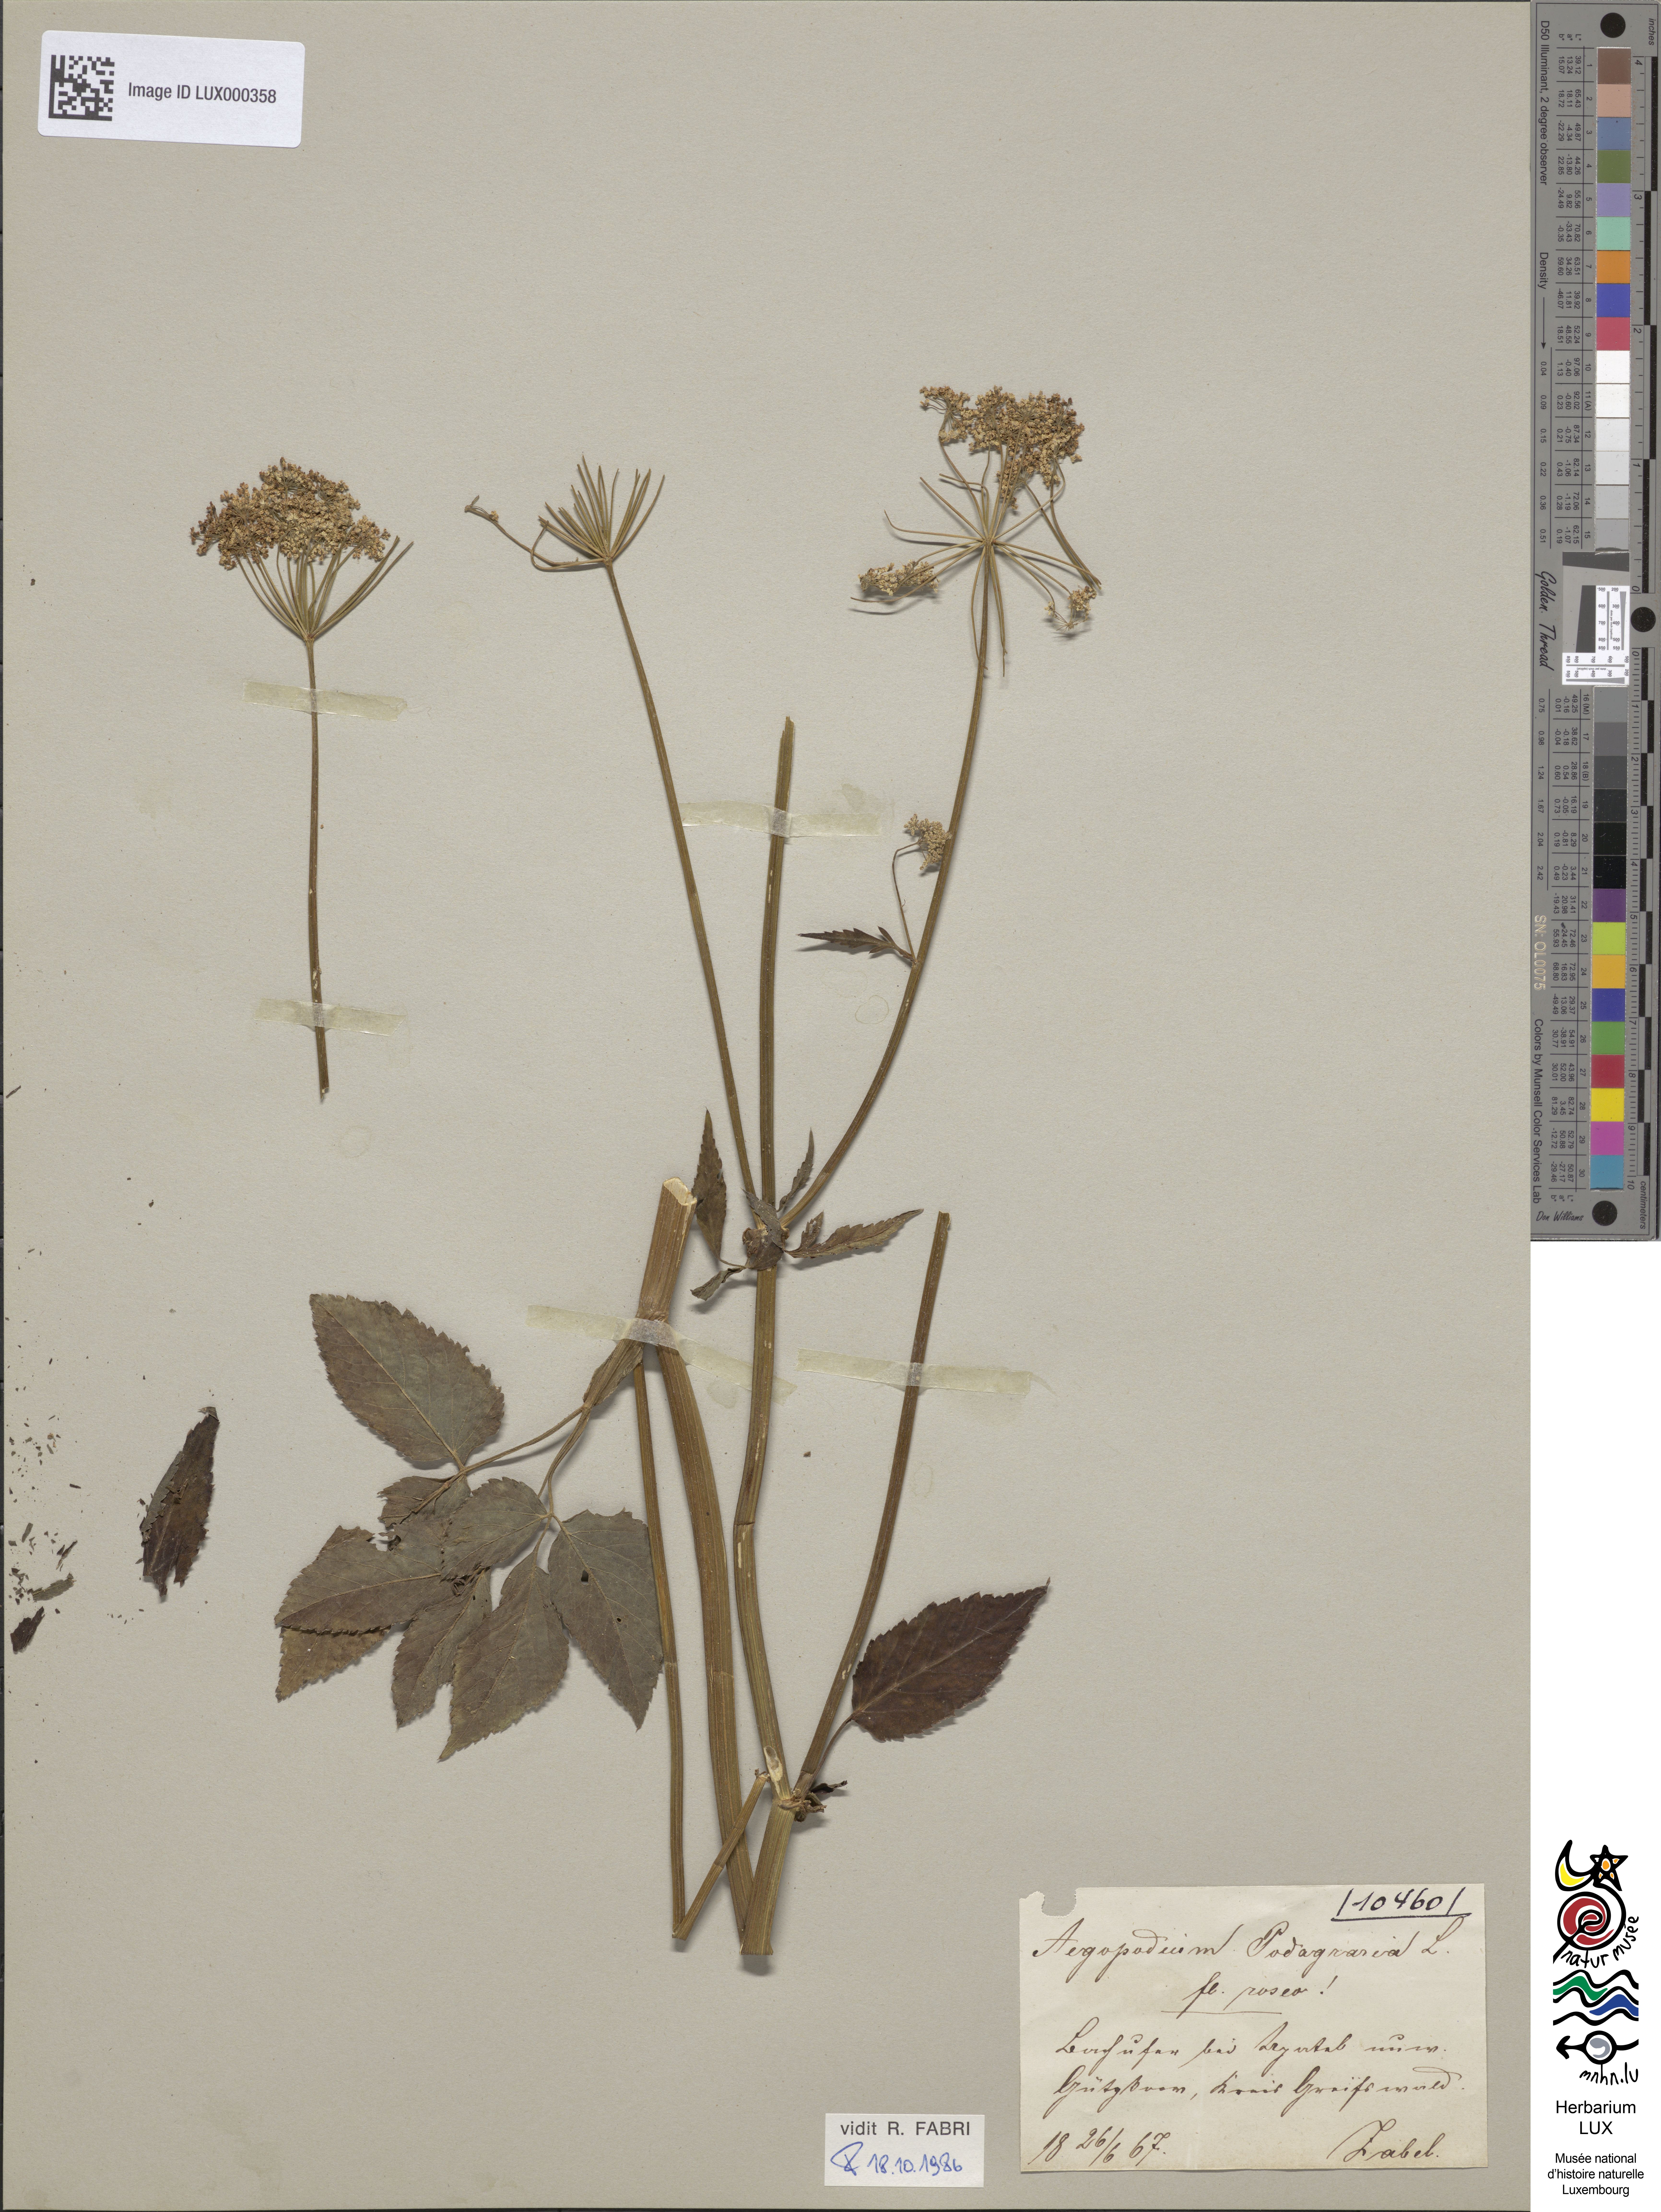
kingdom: Plantae
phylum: Tracheophyta
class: Magnoliopsida
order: Apiales
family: Apiaceae
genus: Aegopodium
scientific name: Aegopodium podagraria
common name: Ground-elder
